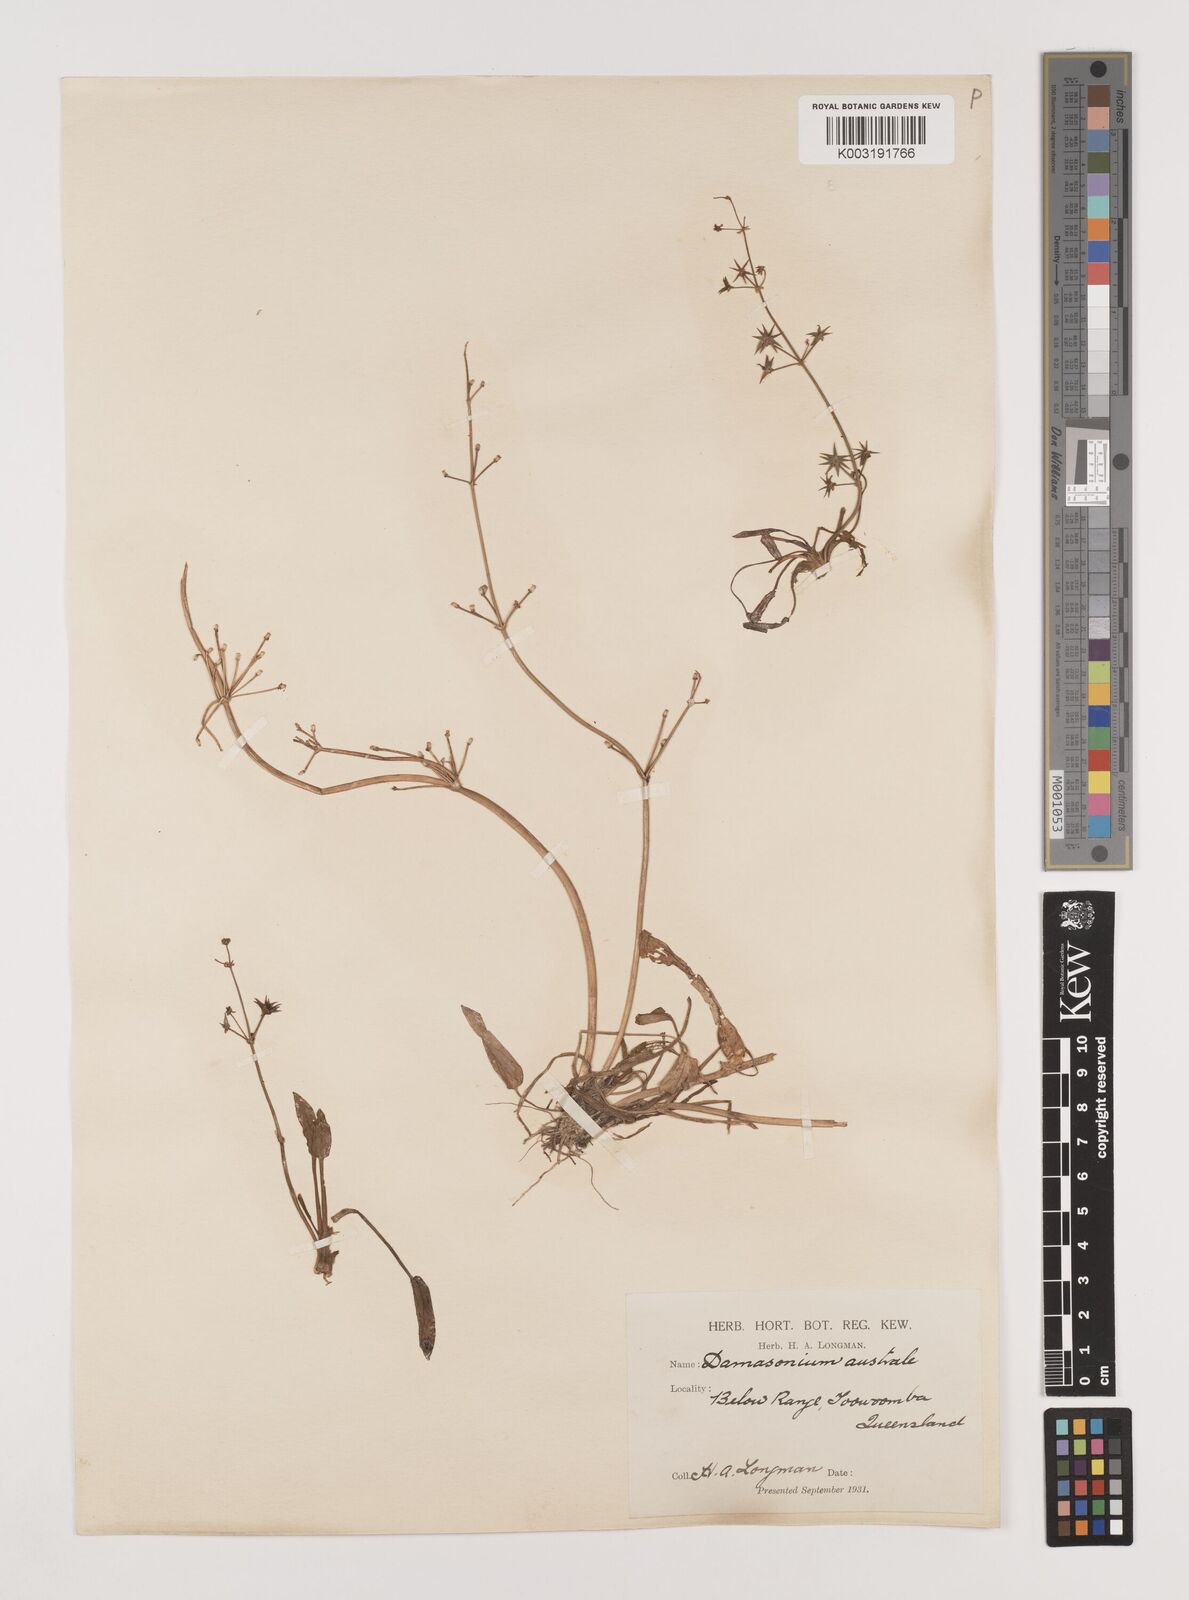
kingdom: Plantae
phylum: Tracheophyta
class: Liliopsida
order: Alismatales
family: Alismataceae
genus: Damasonium
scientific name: Damasonium minus
